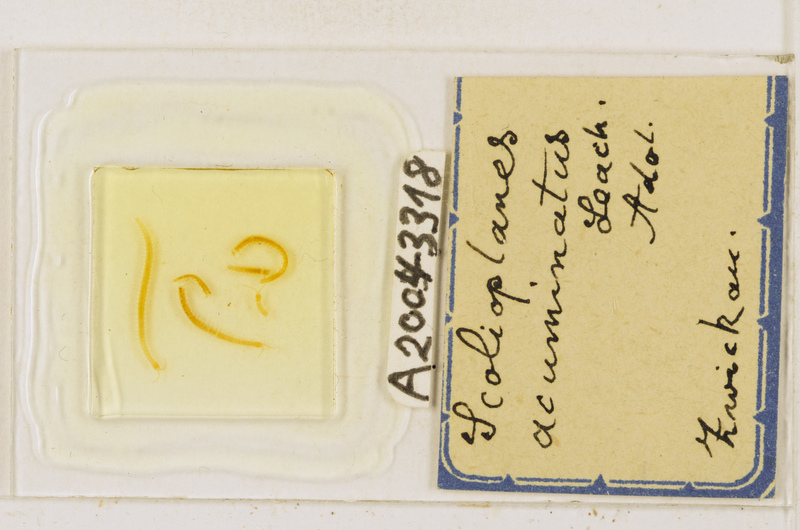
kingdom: Animalia
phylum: Arthropoda
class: Chilopoda
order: Geophilomorpha
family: Linotaeniidae
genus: Strigamia
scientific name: Strigamia acuminata
